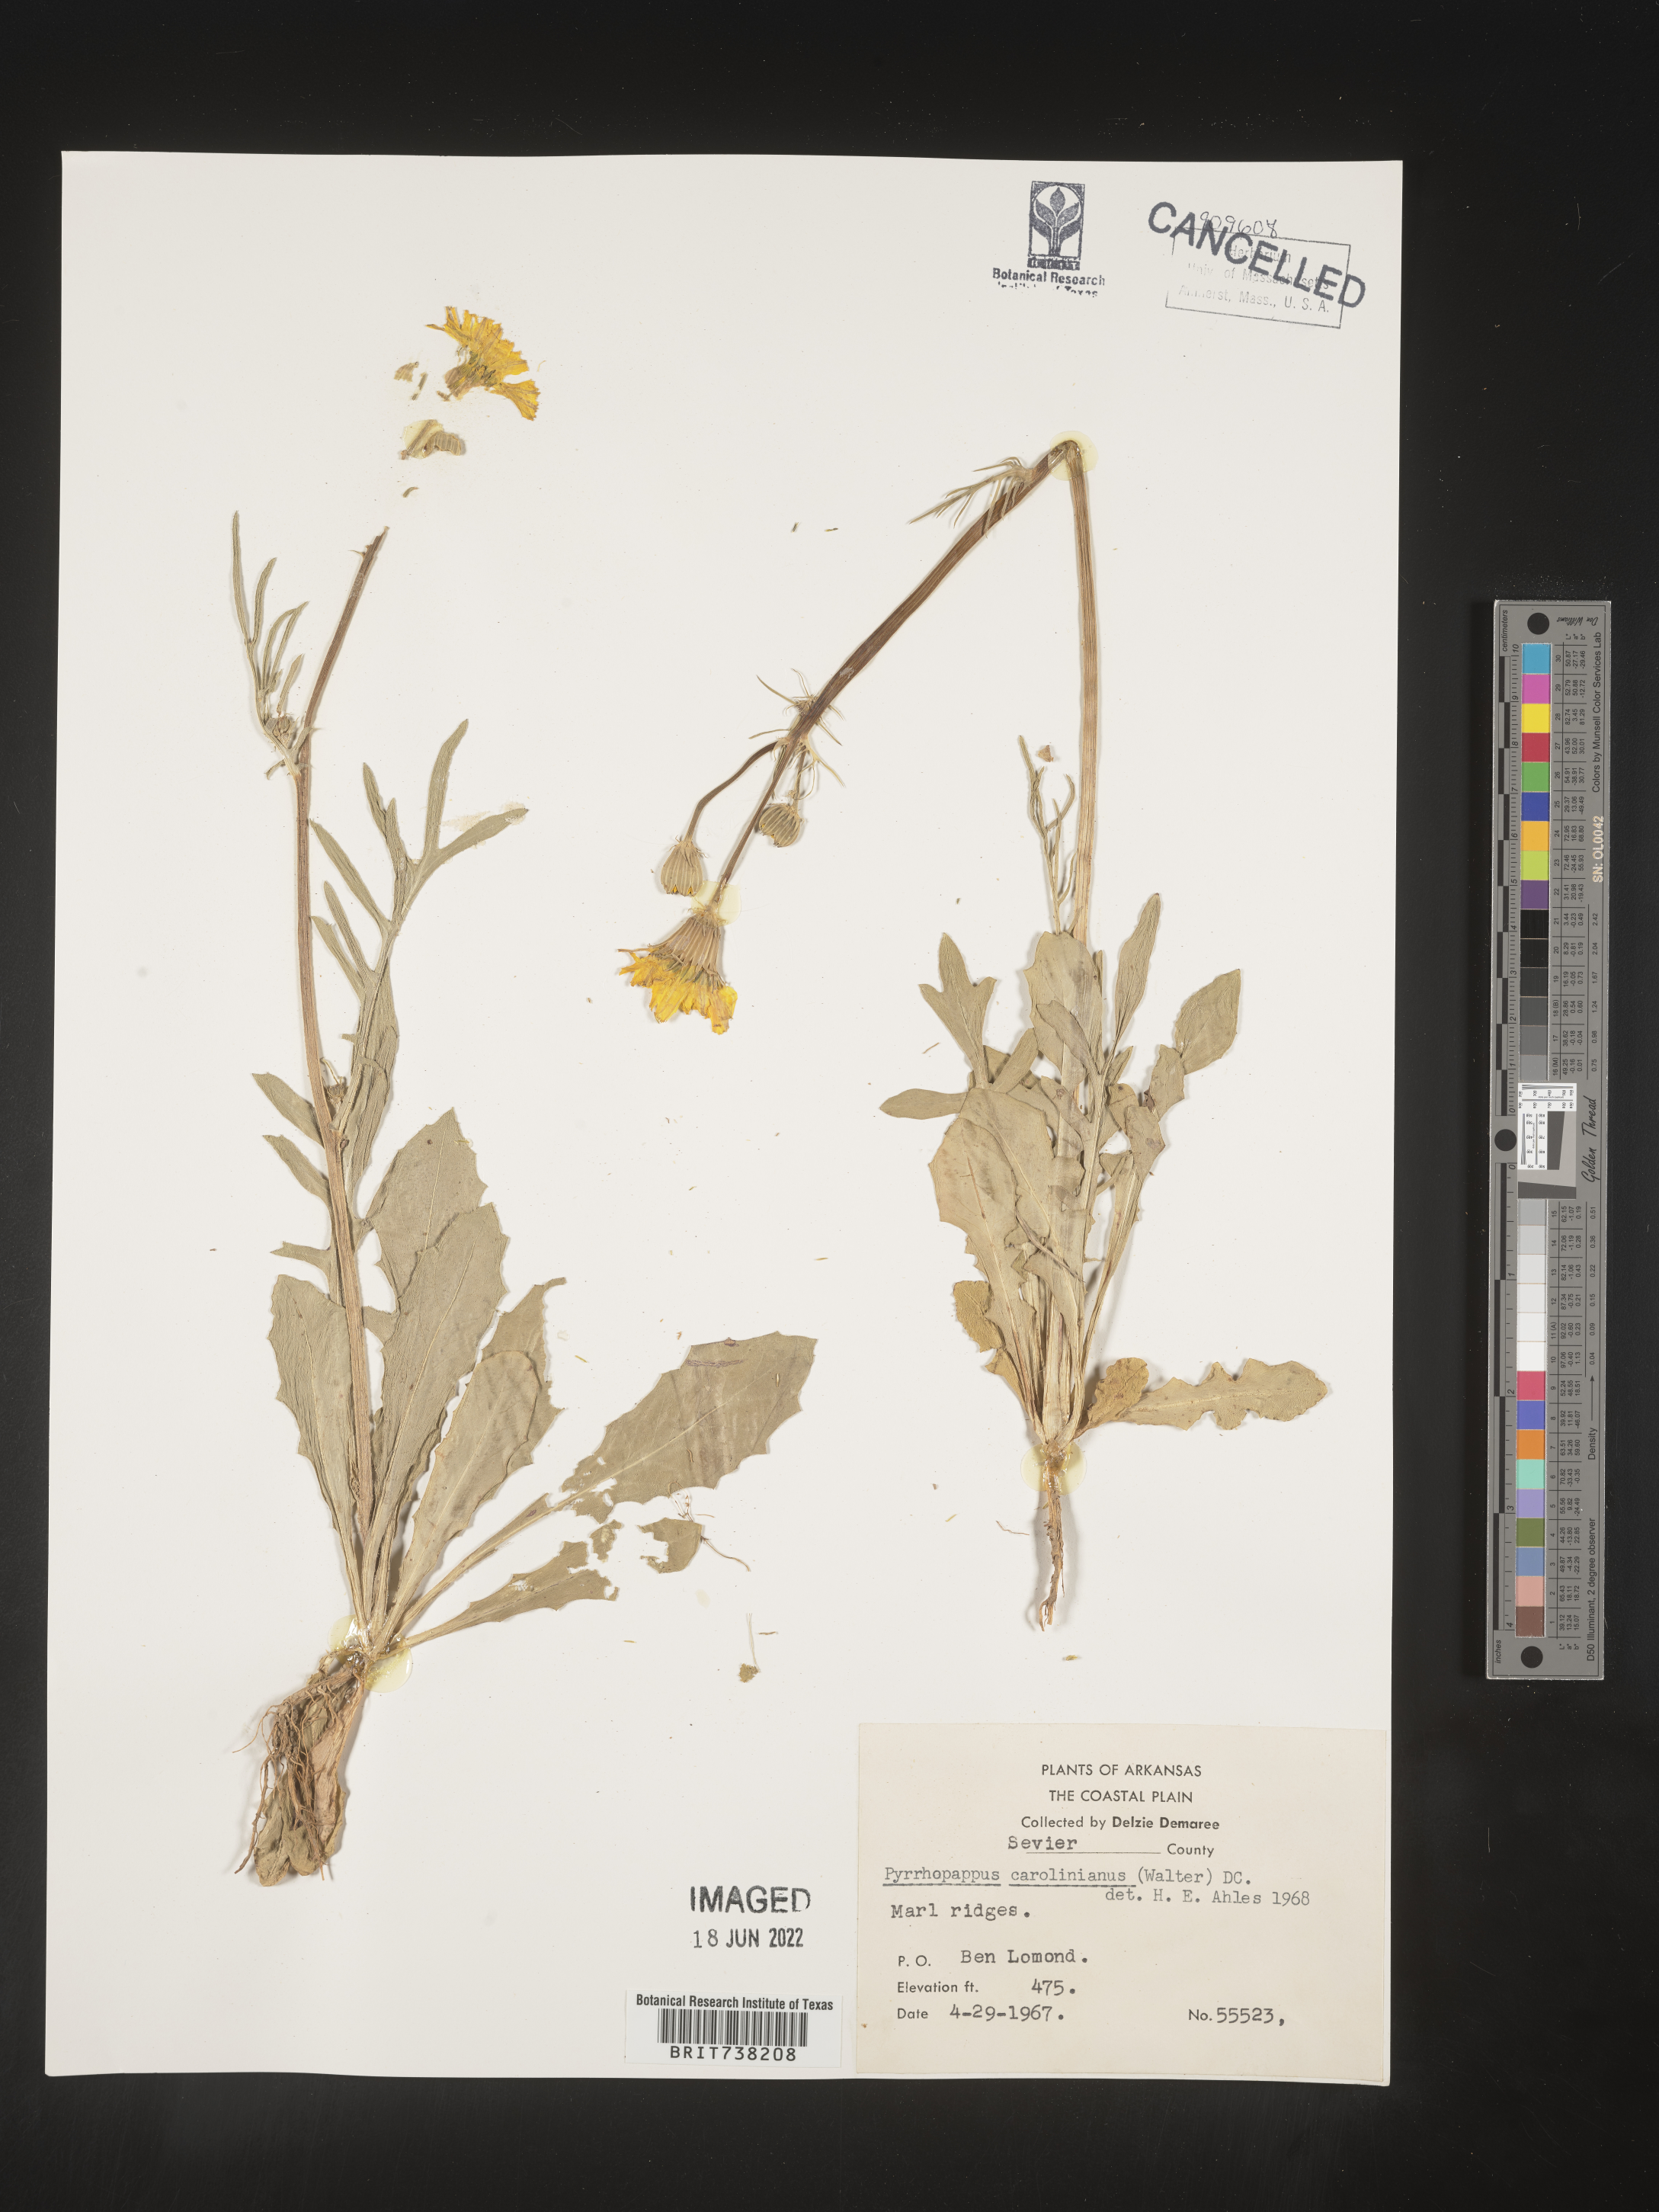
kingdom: Plantae
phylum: Tracheophyta
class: Magnoliopsida
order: Asterales
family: Asteraceae
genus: Pyrrhopappus
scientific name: Pyrrhopappus carolinianus
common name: Carolina desert-chicory
